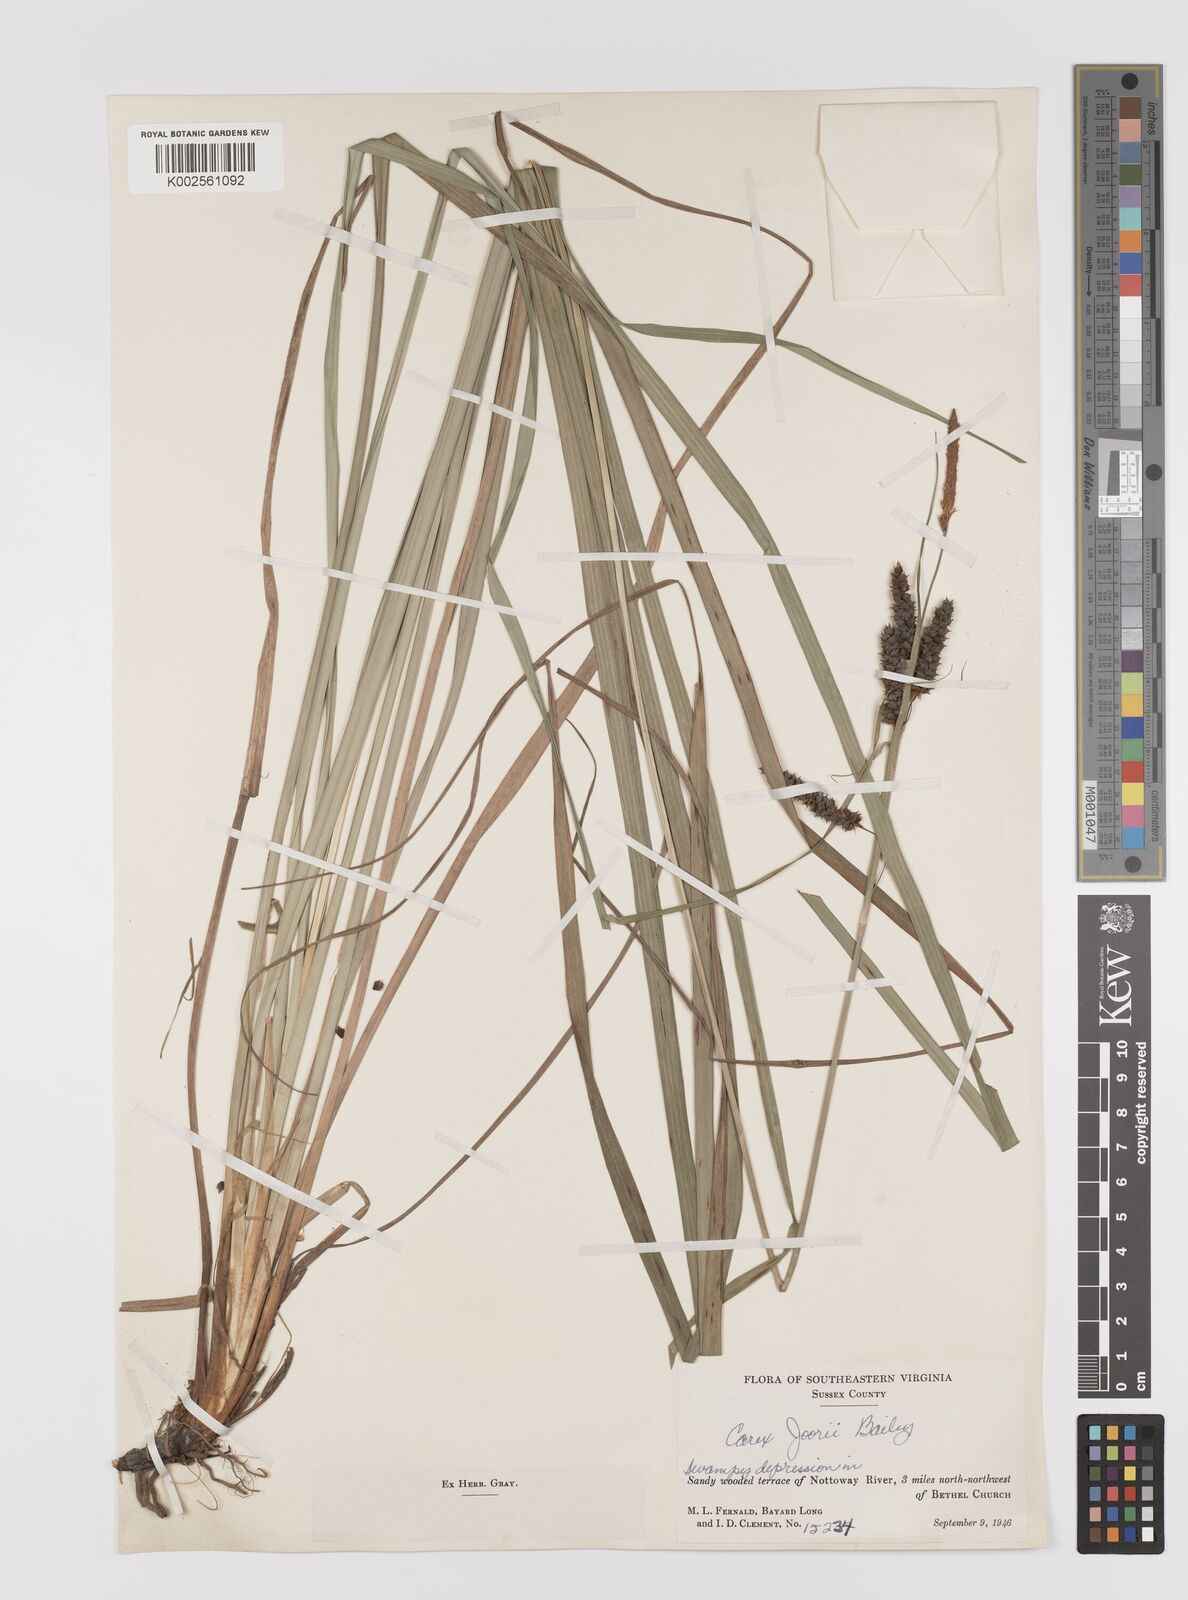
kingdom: Plantae
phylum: Tracheophyta
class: Liliopsida
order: Poales
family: Cyperaceae
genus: Carex
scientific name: Carex joorii
